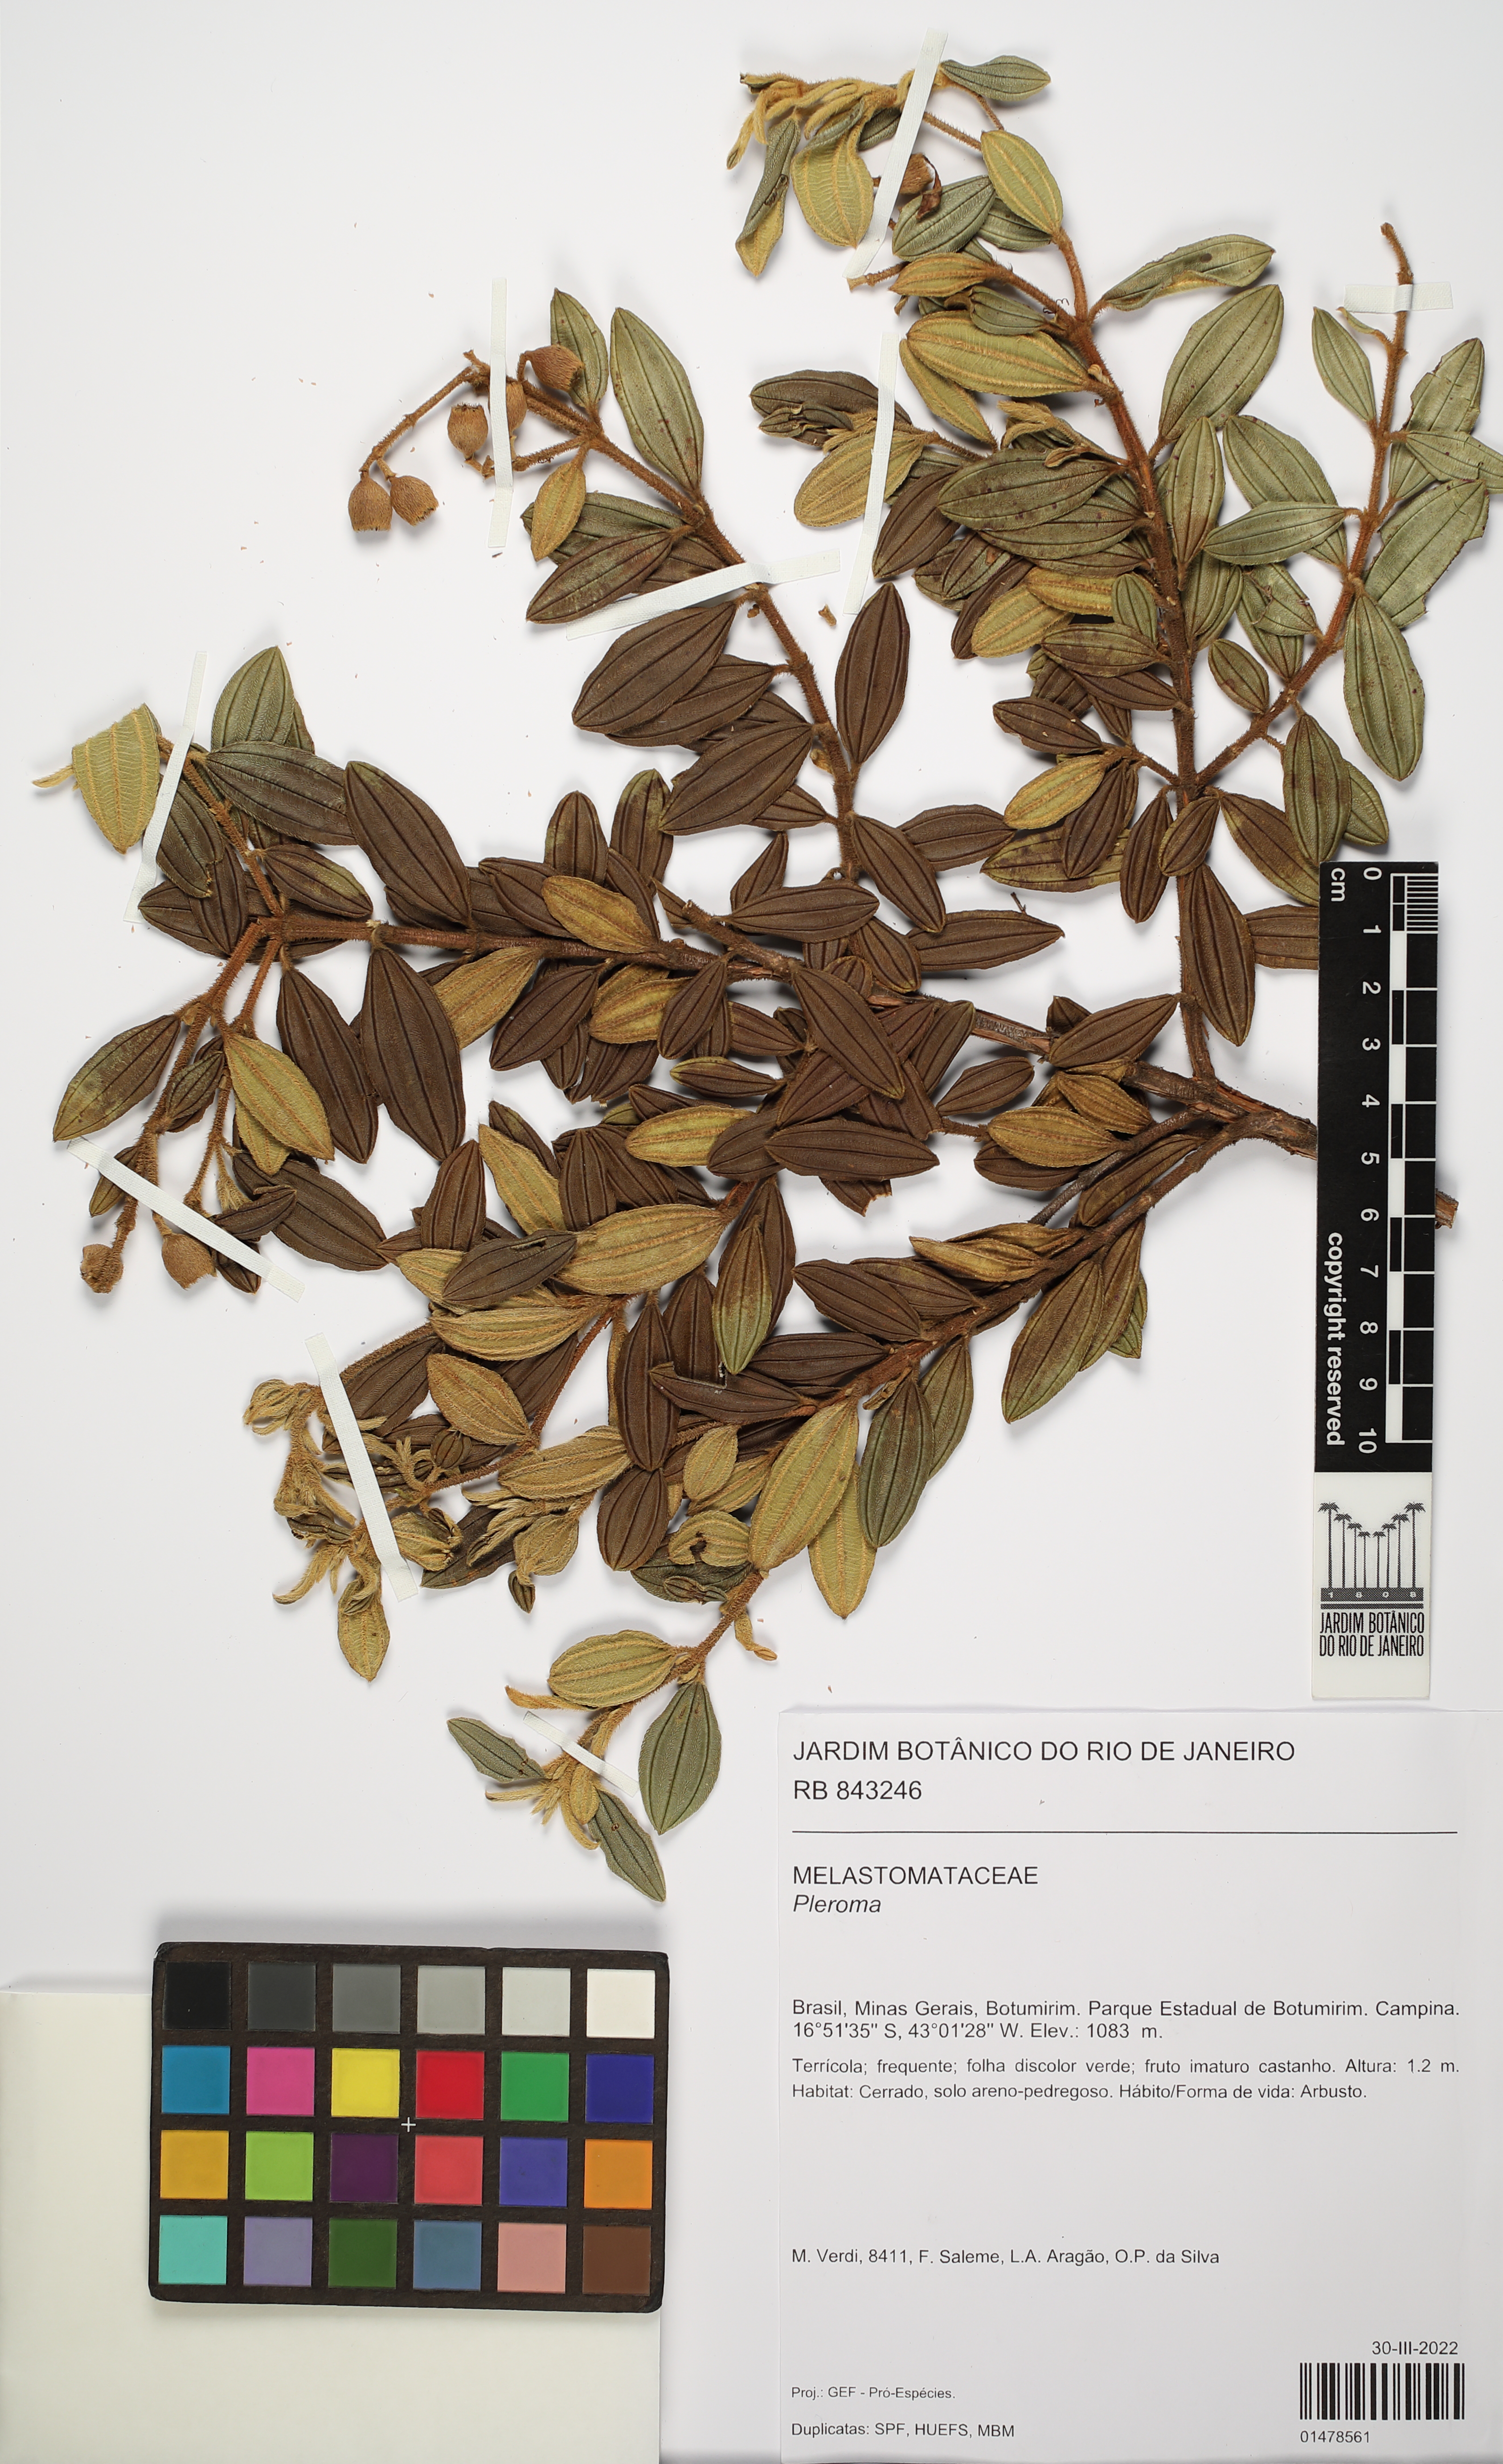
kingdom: Plantae
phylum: Tracheophyta
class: Magnoliopsida
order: Myrtales
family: Melastomataceae
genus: Pleroma
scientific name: Pleroma
